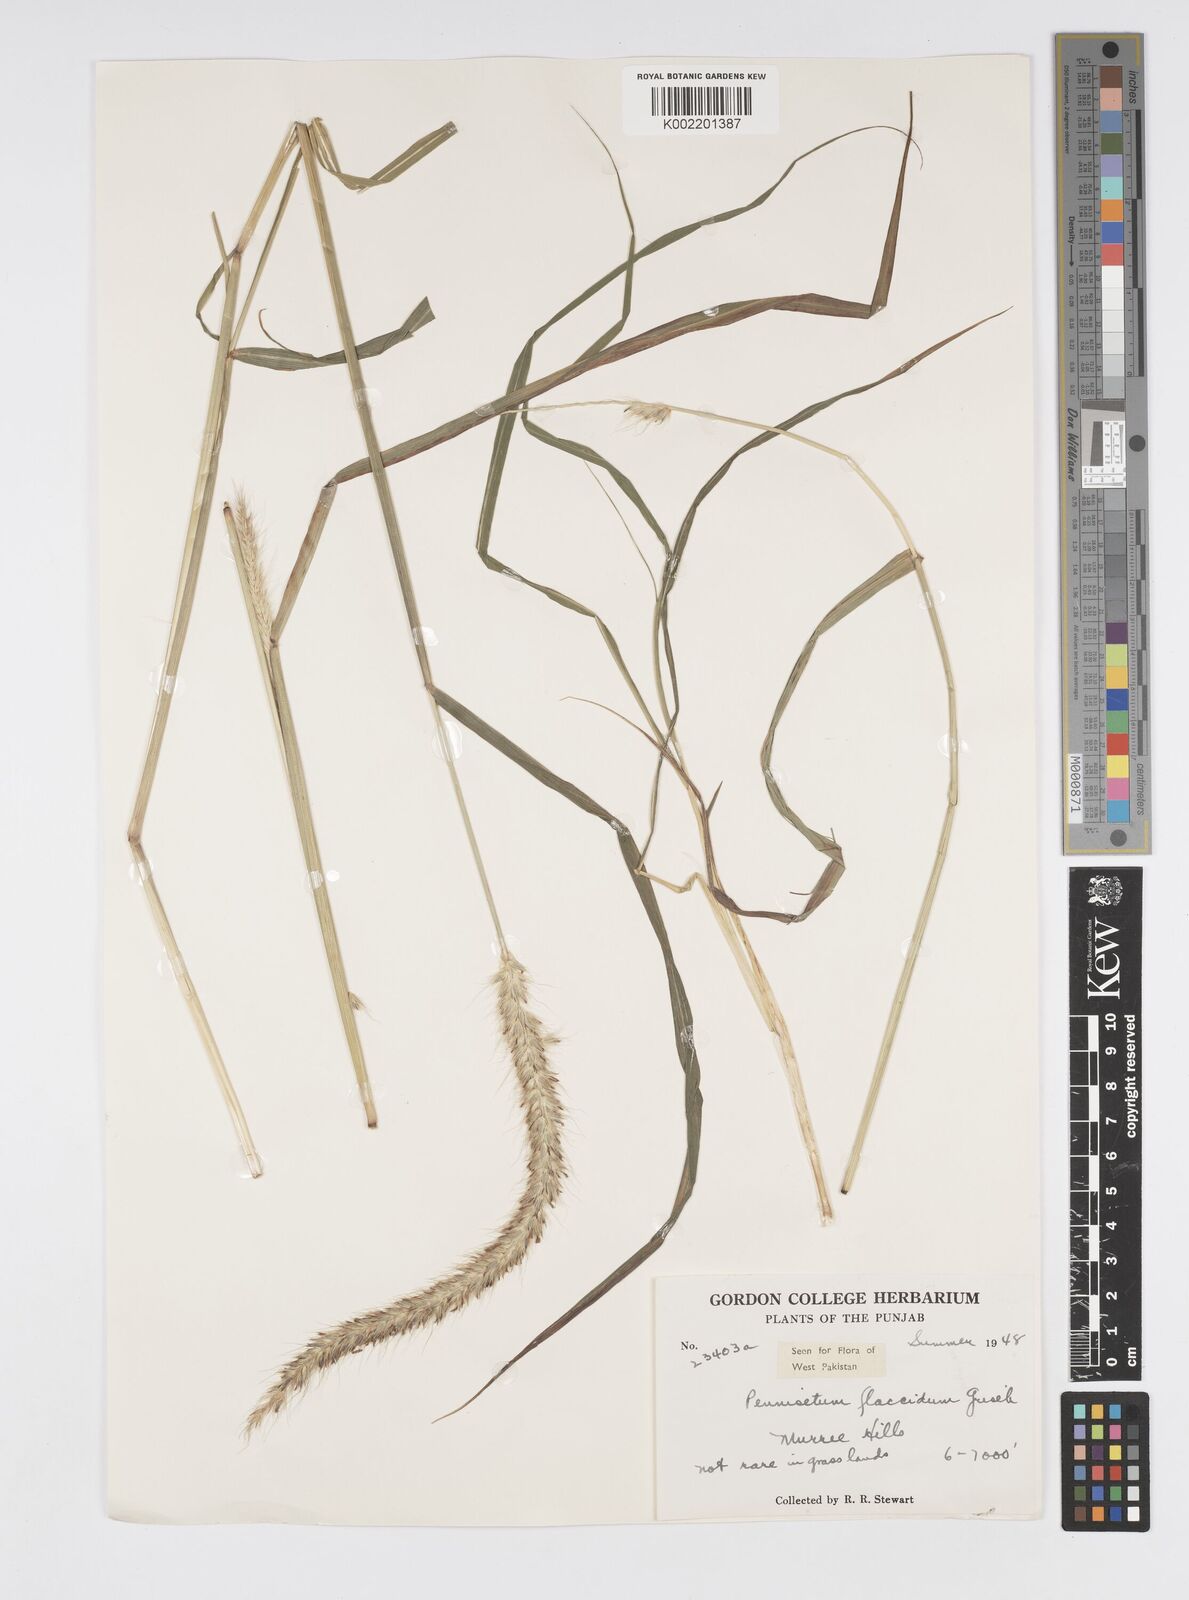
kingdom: Plantae
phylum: Tracheophyta
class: Liliopsida
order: Poales
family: Poaceae
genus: Cenchrus
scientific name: Cenchrus flaccidus
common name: Flaccid grass
